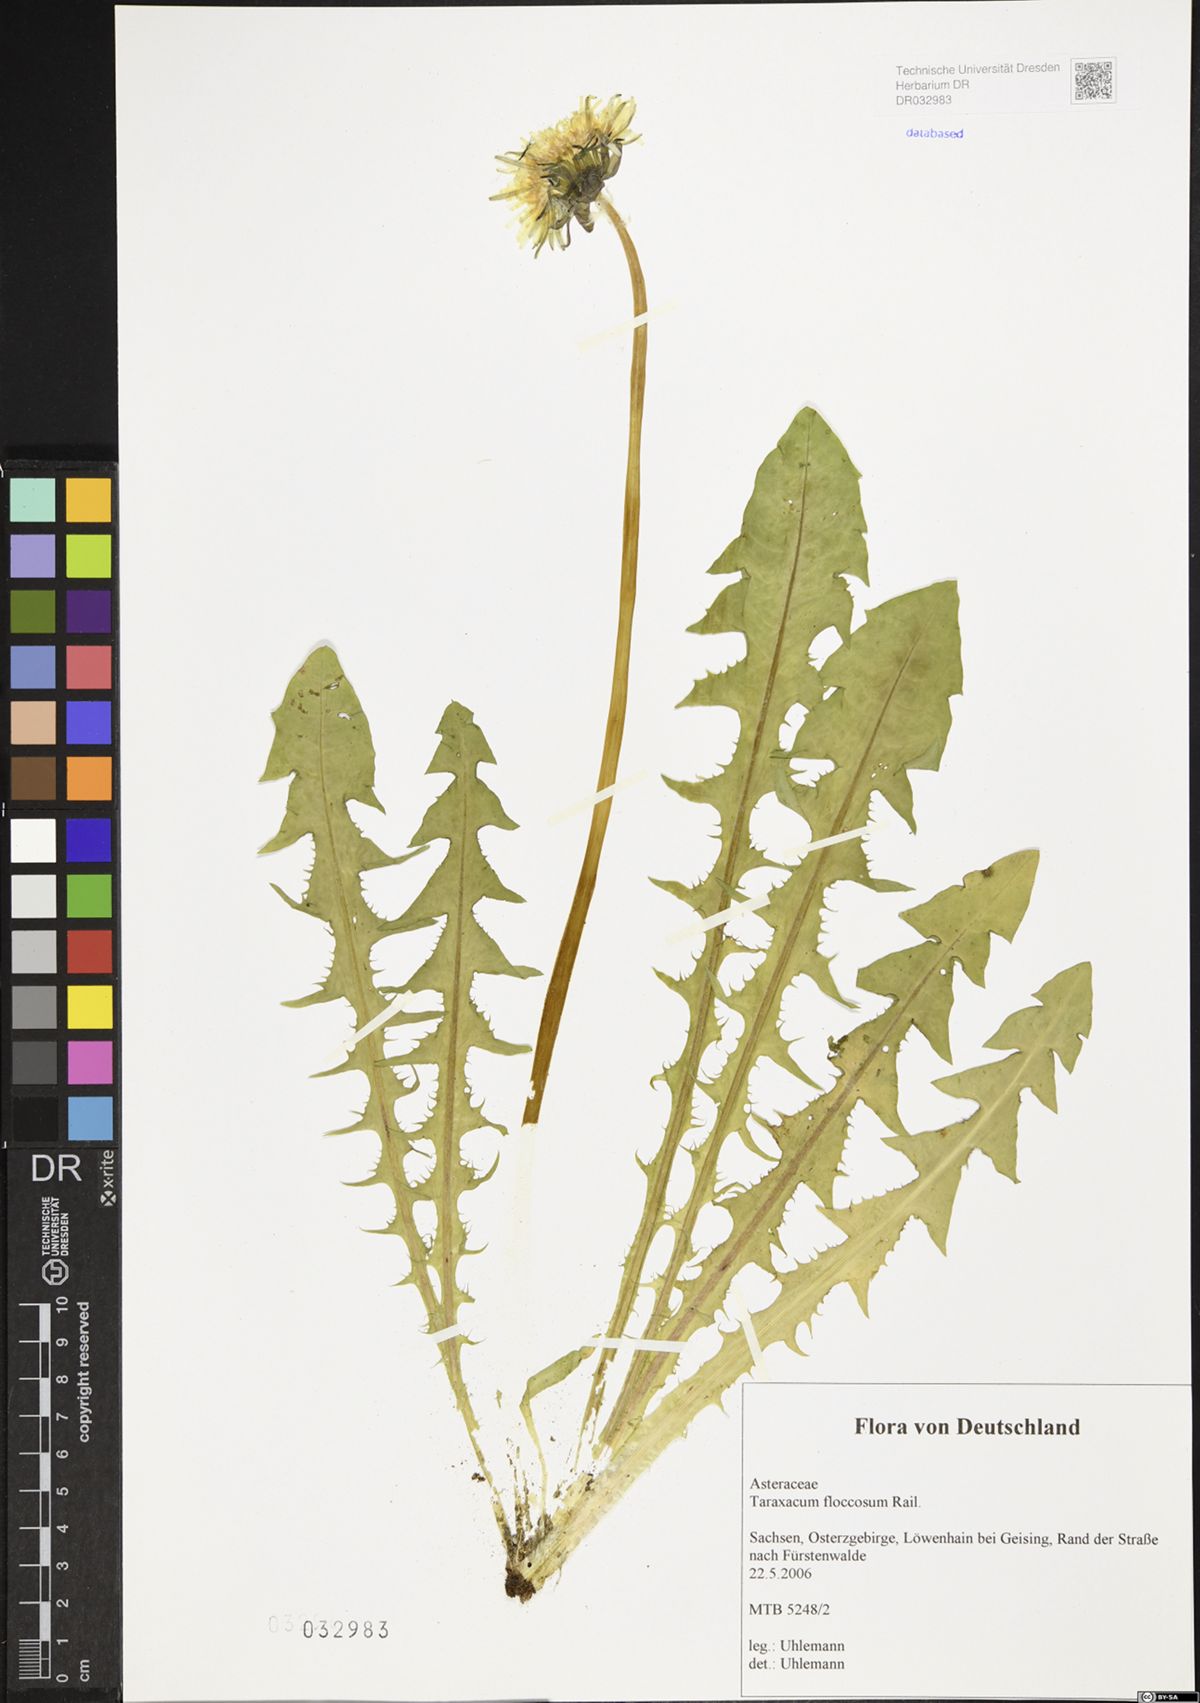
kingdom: Plantae
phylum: Tracheophyta
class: Magnoliopsida
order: Asterales
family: Asteraceae
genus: Taraxacum
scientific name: Taraxacum floccosum
